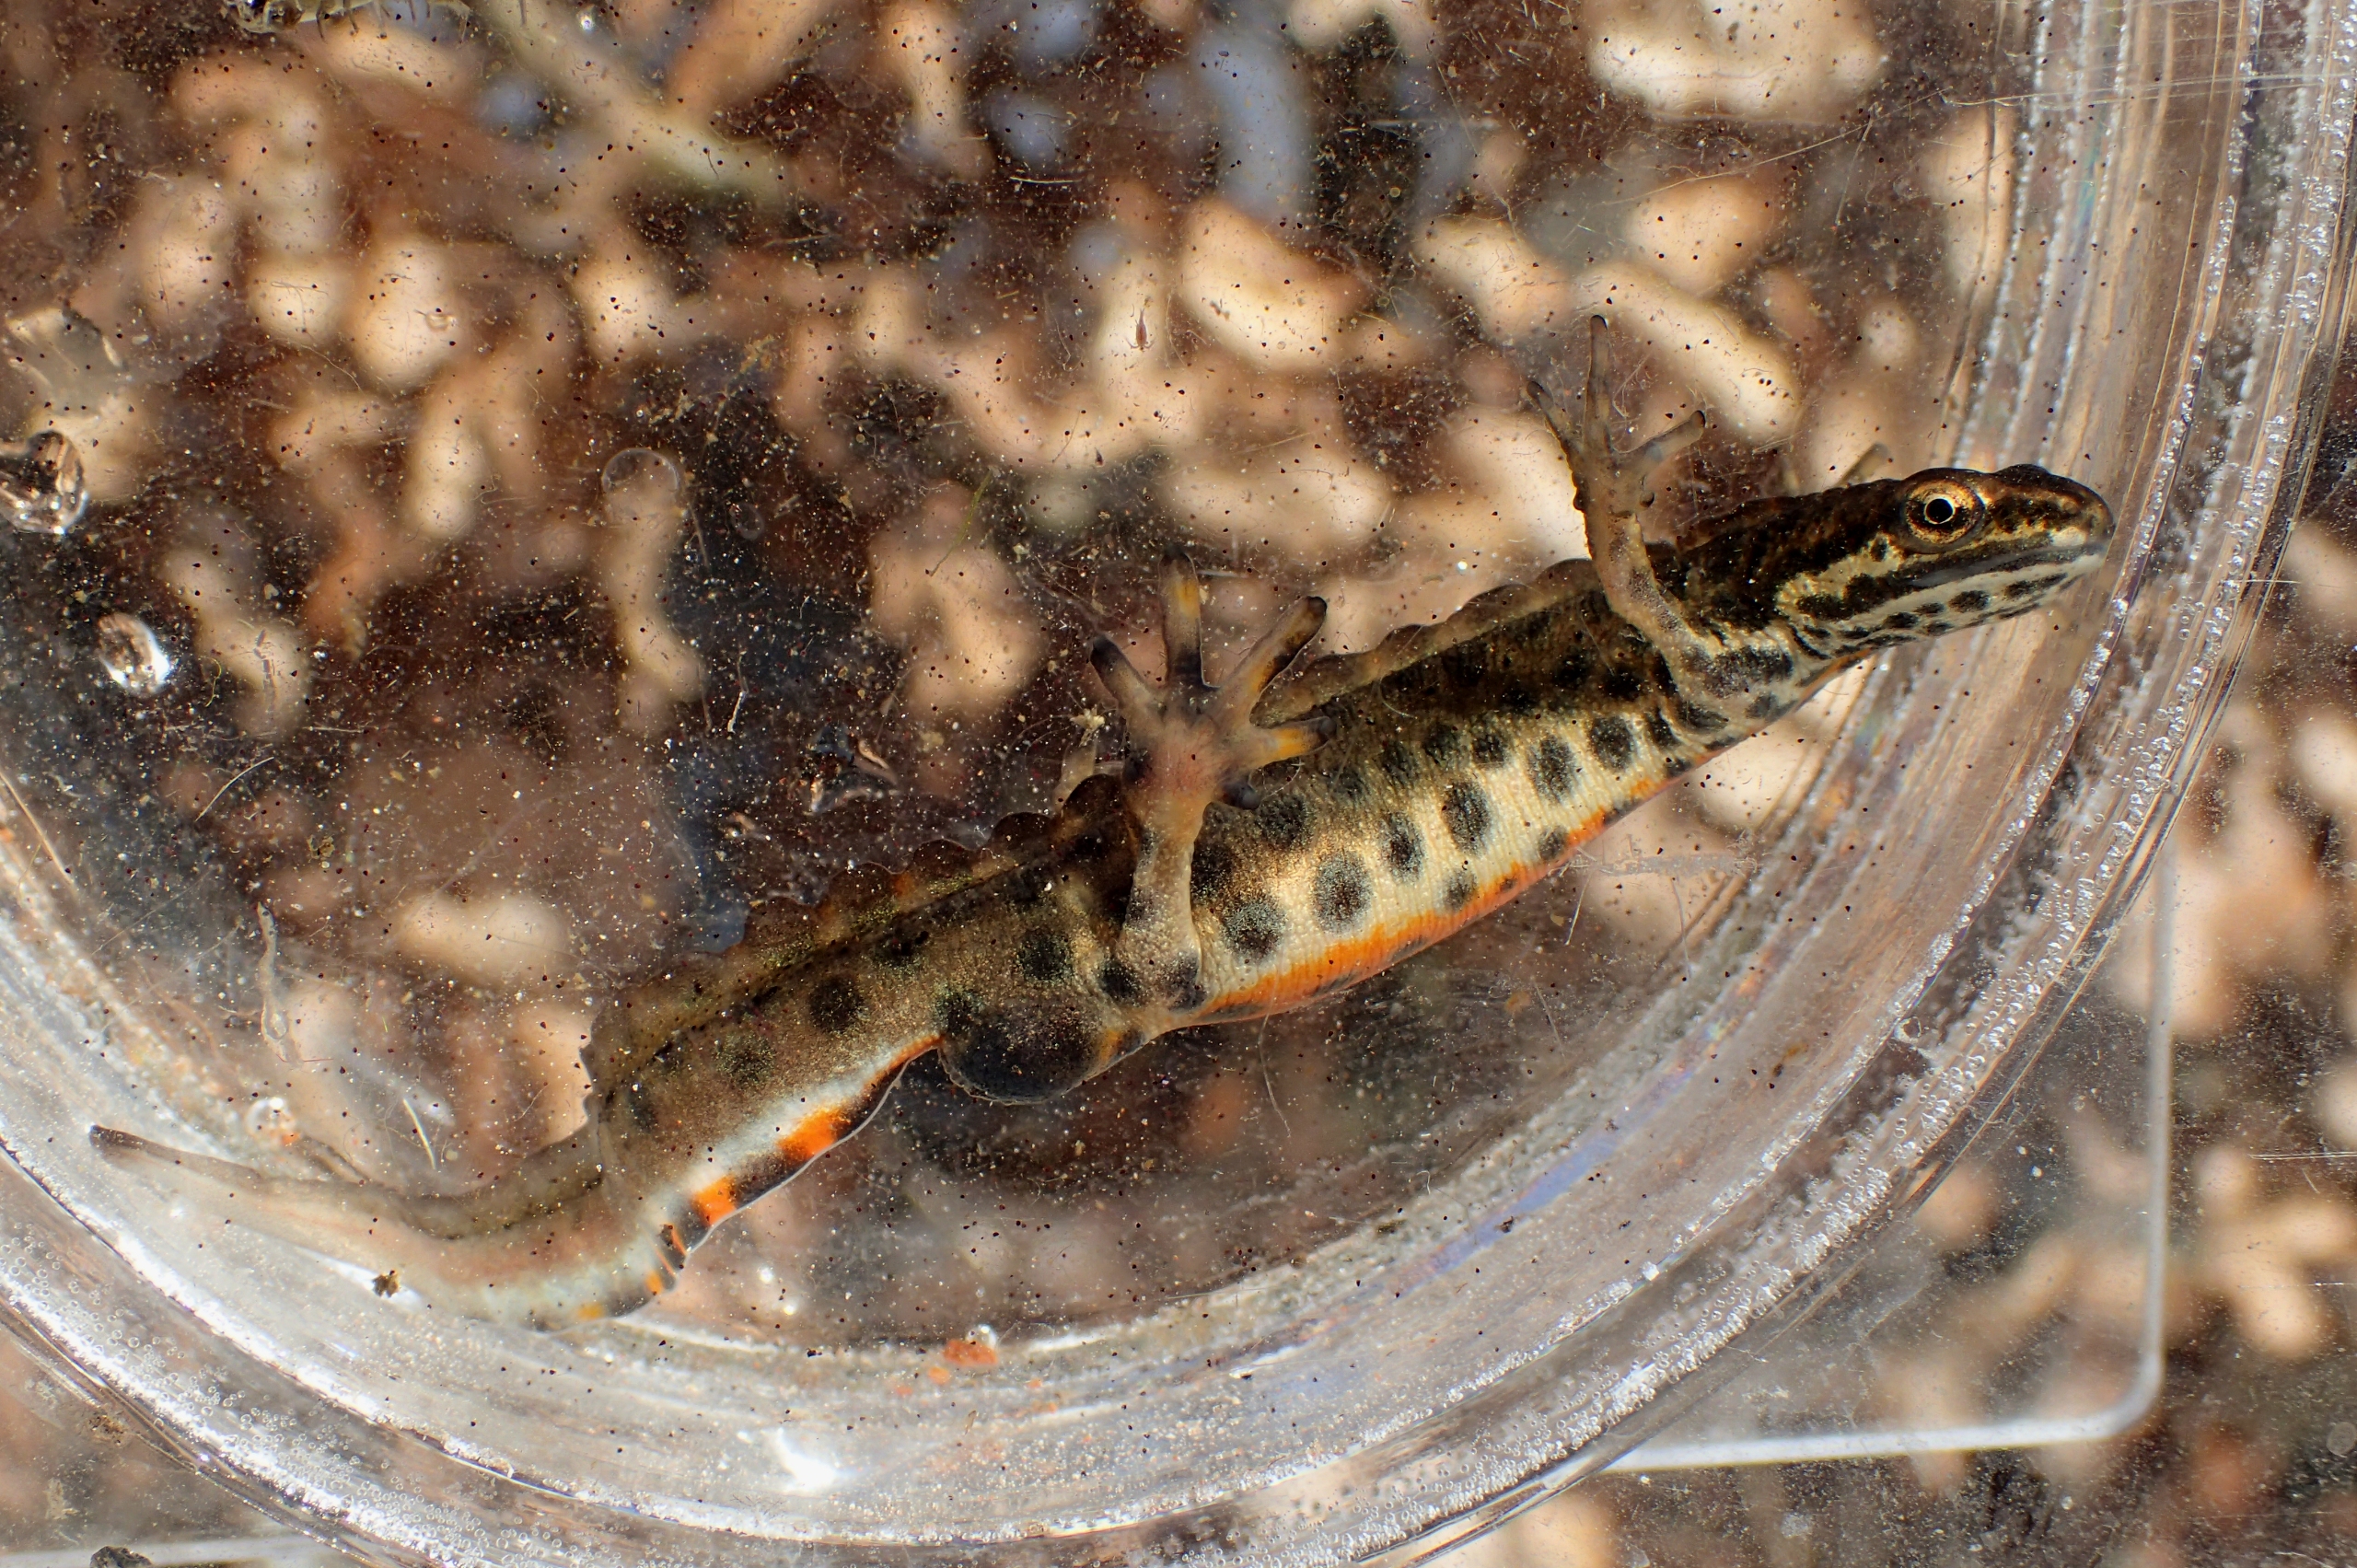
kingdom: Animalia
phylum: Chordata
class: Amphibia
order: Caudata
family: Salamandridae
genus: Lissotriton
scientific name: Lissotriton vulgaris
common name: Lille vandsalamander
